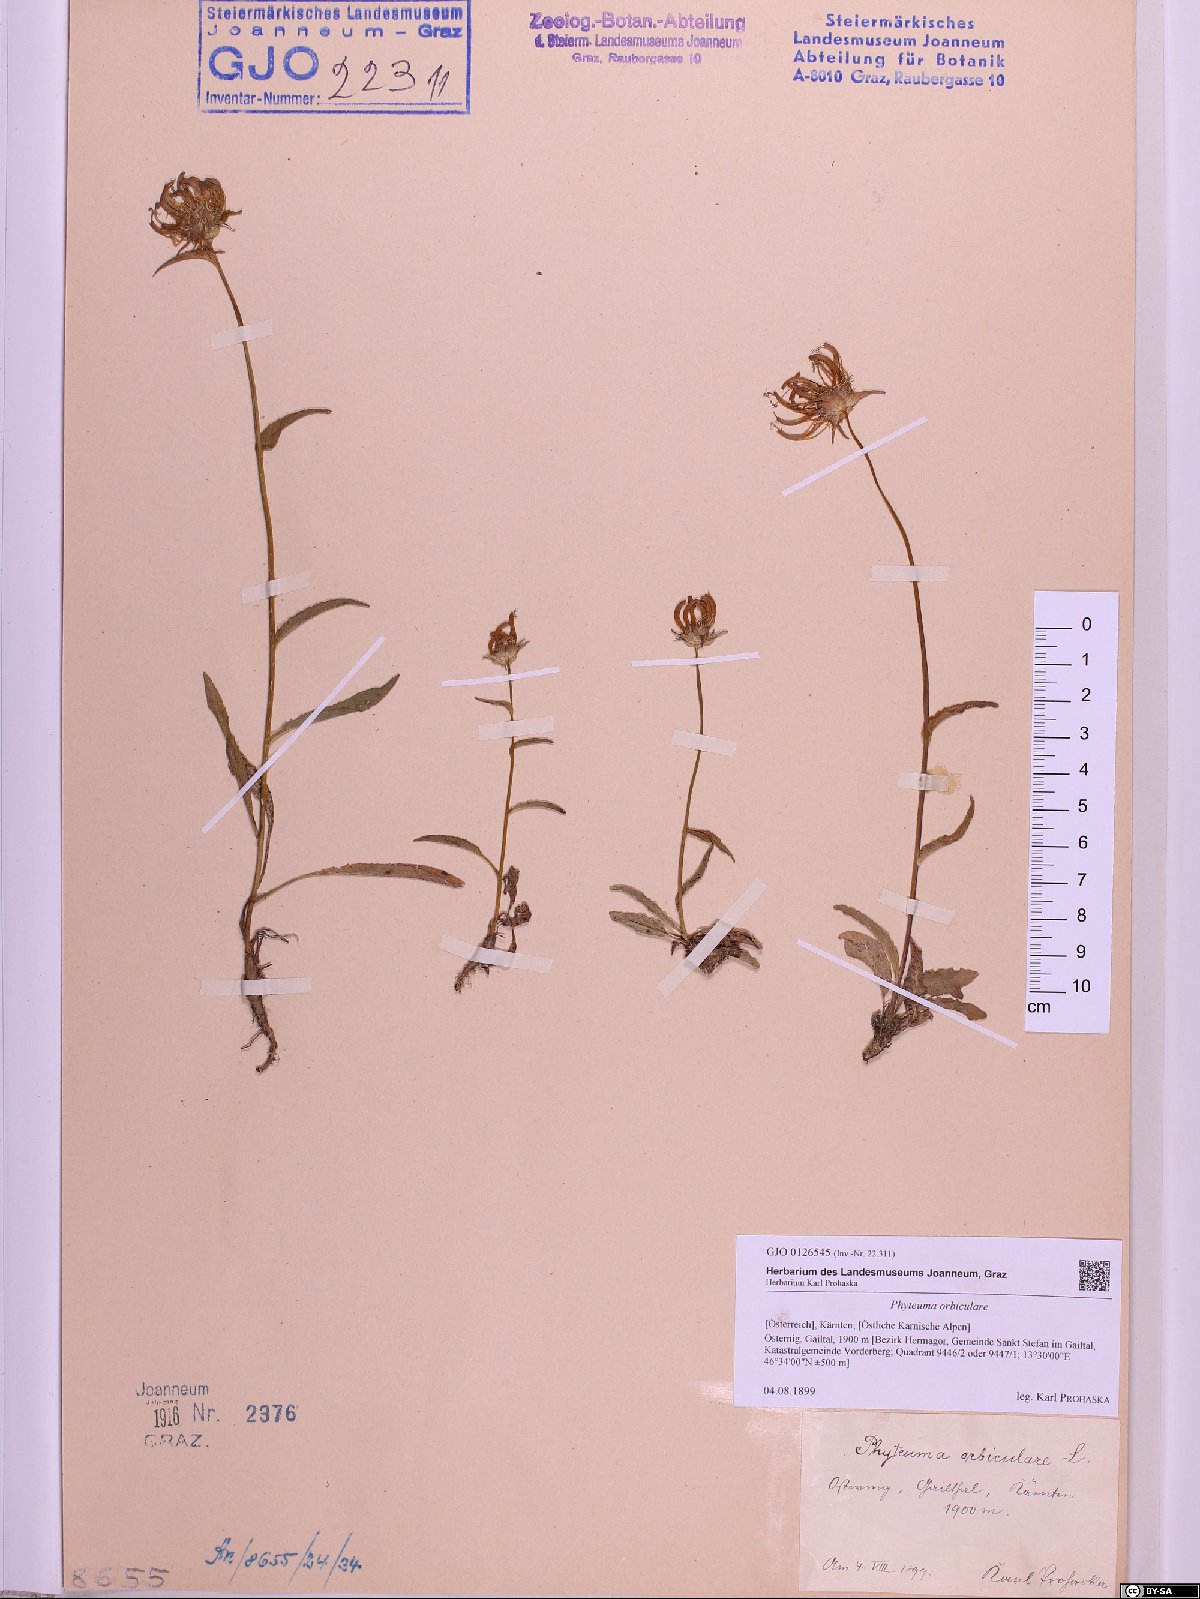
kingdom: Plantae
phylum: Tracheophyta
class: Magnoliopsida
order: Asterales
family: Campanulaceae
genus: Phyteuma
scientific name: Phyteuma orbiculare
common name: Round-headed rampion
